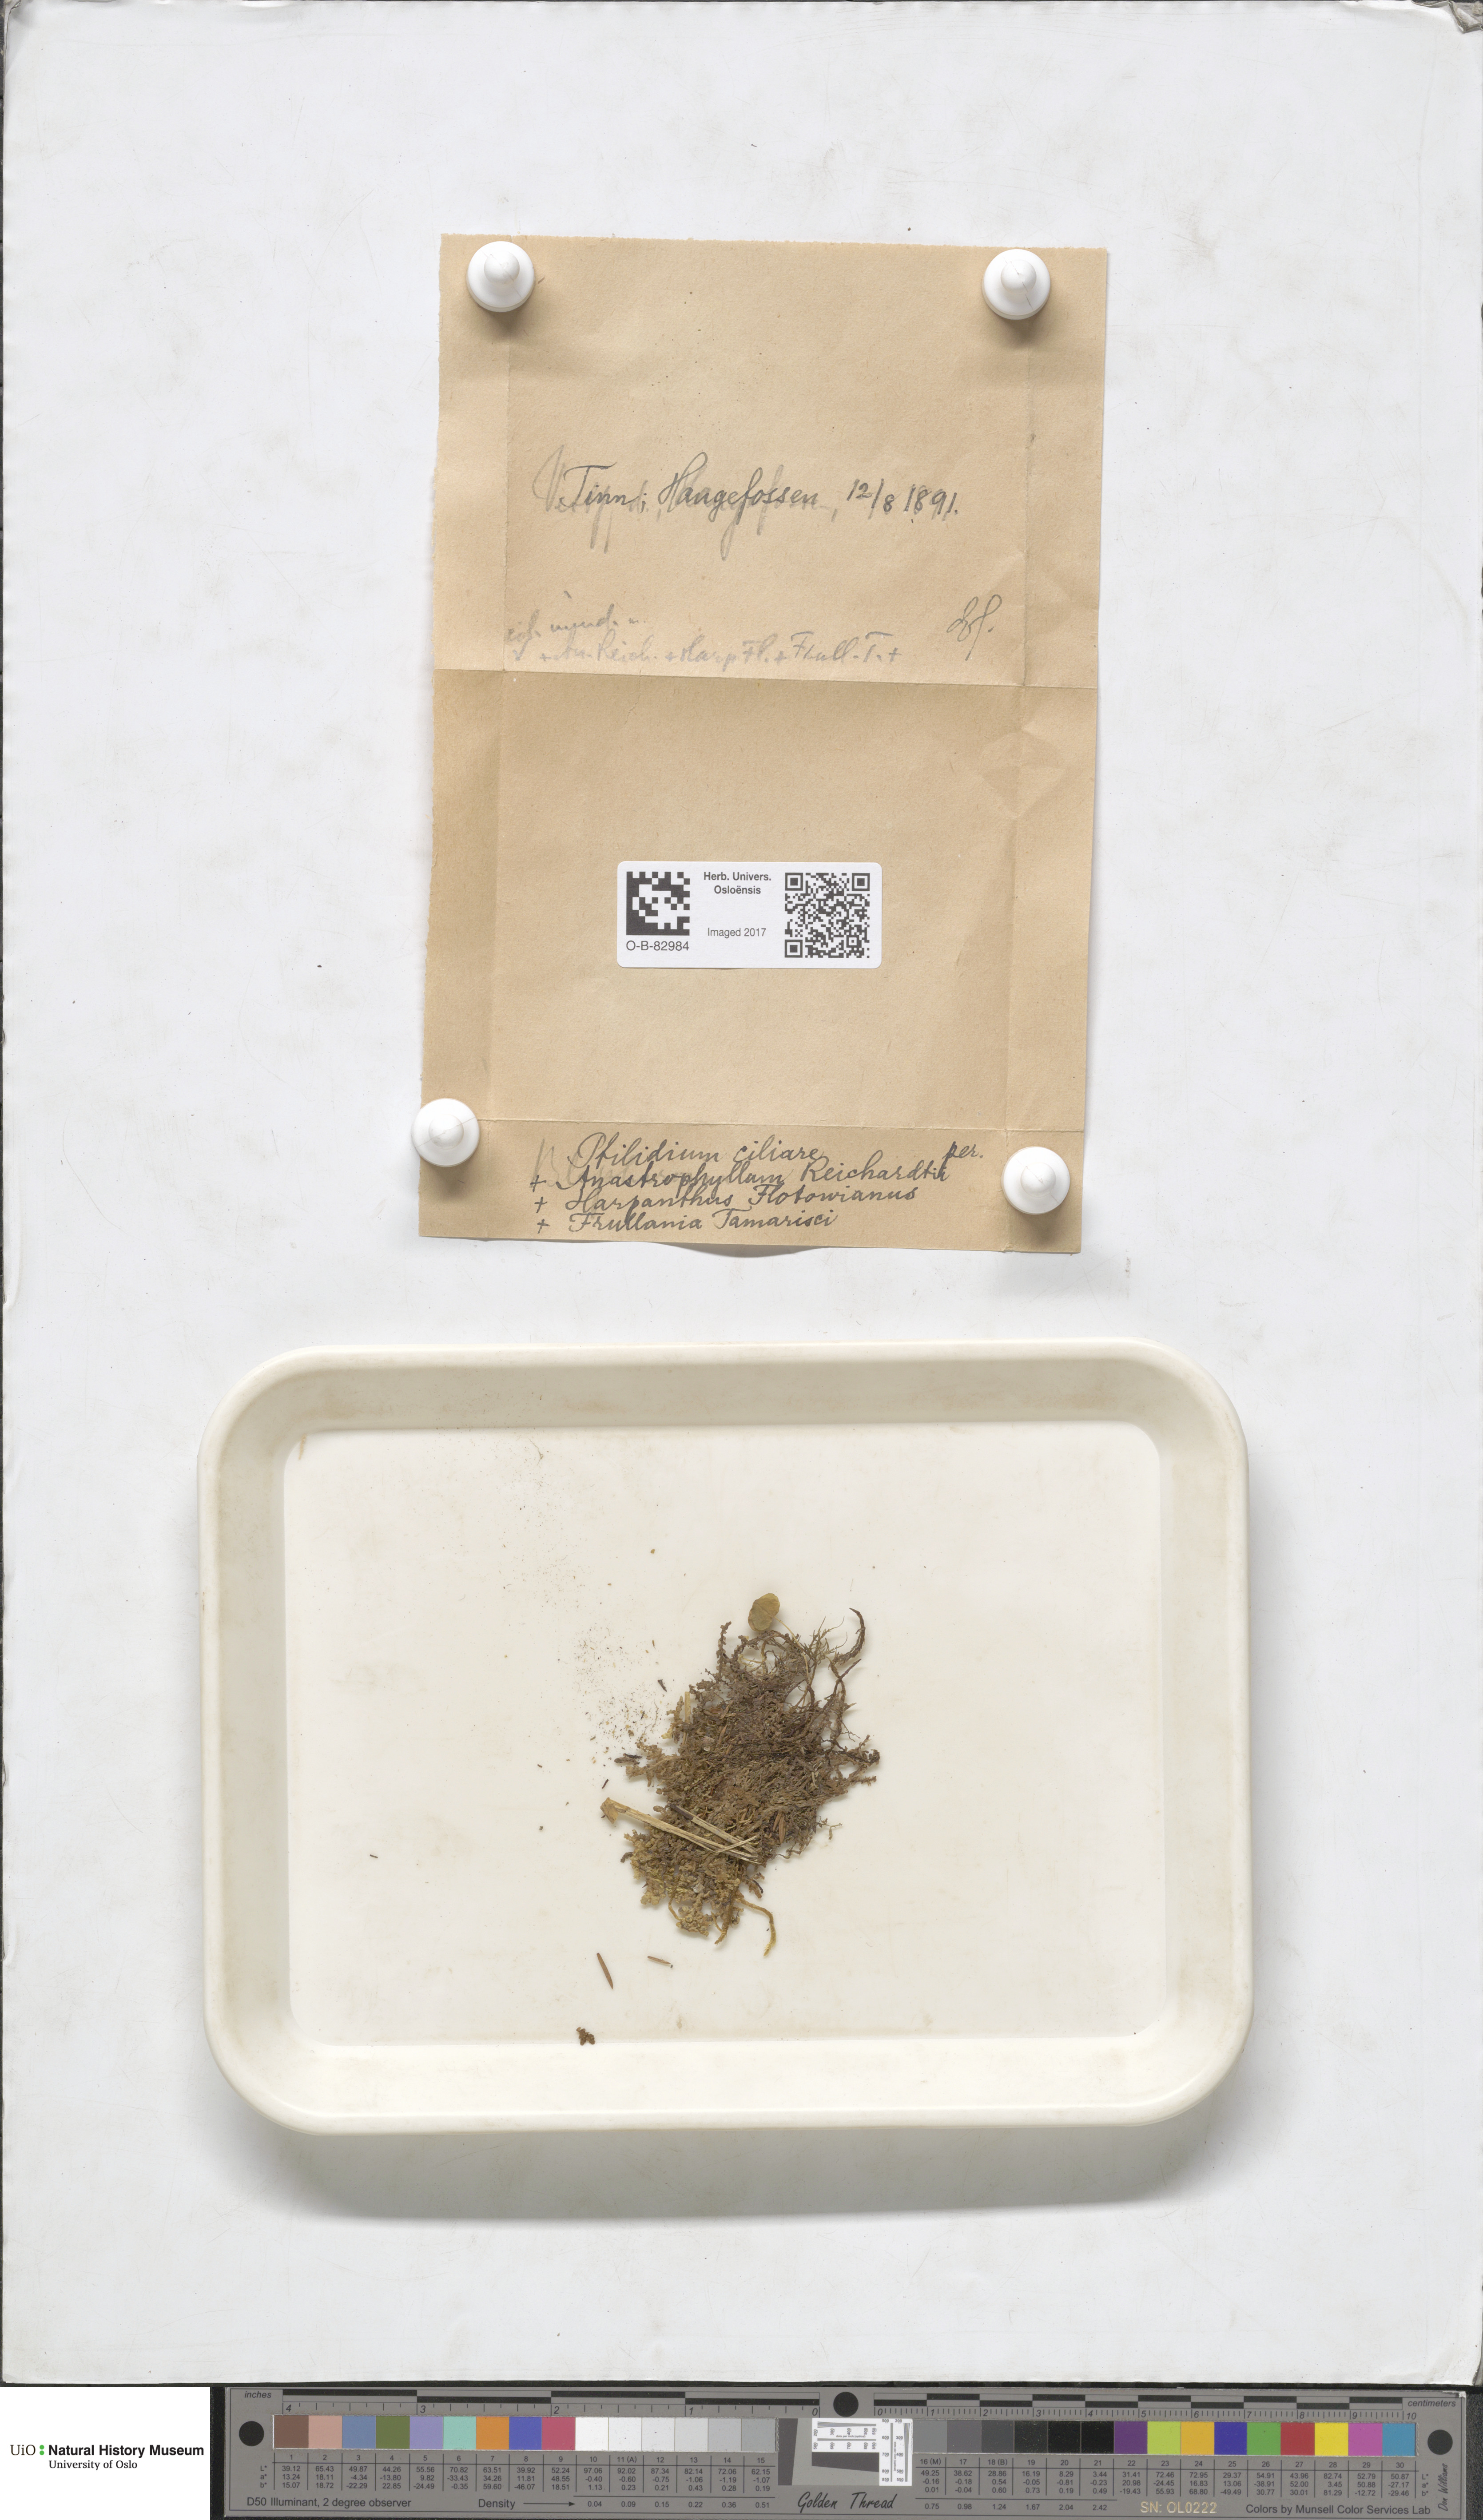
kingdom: Plantae
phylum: Marchantiophyta
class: Jungermanniopsida
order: Ptilidiales
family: Ptilidiaceae
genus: Ptilidium
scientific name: Ptilidium ciliare
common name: Ciliate fringewort
